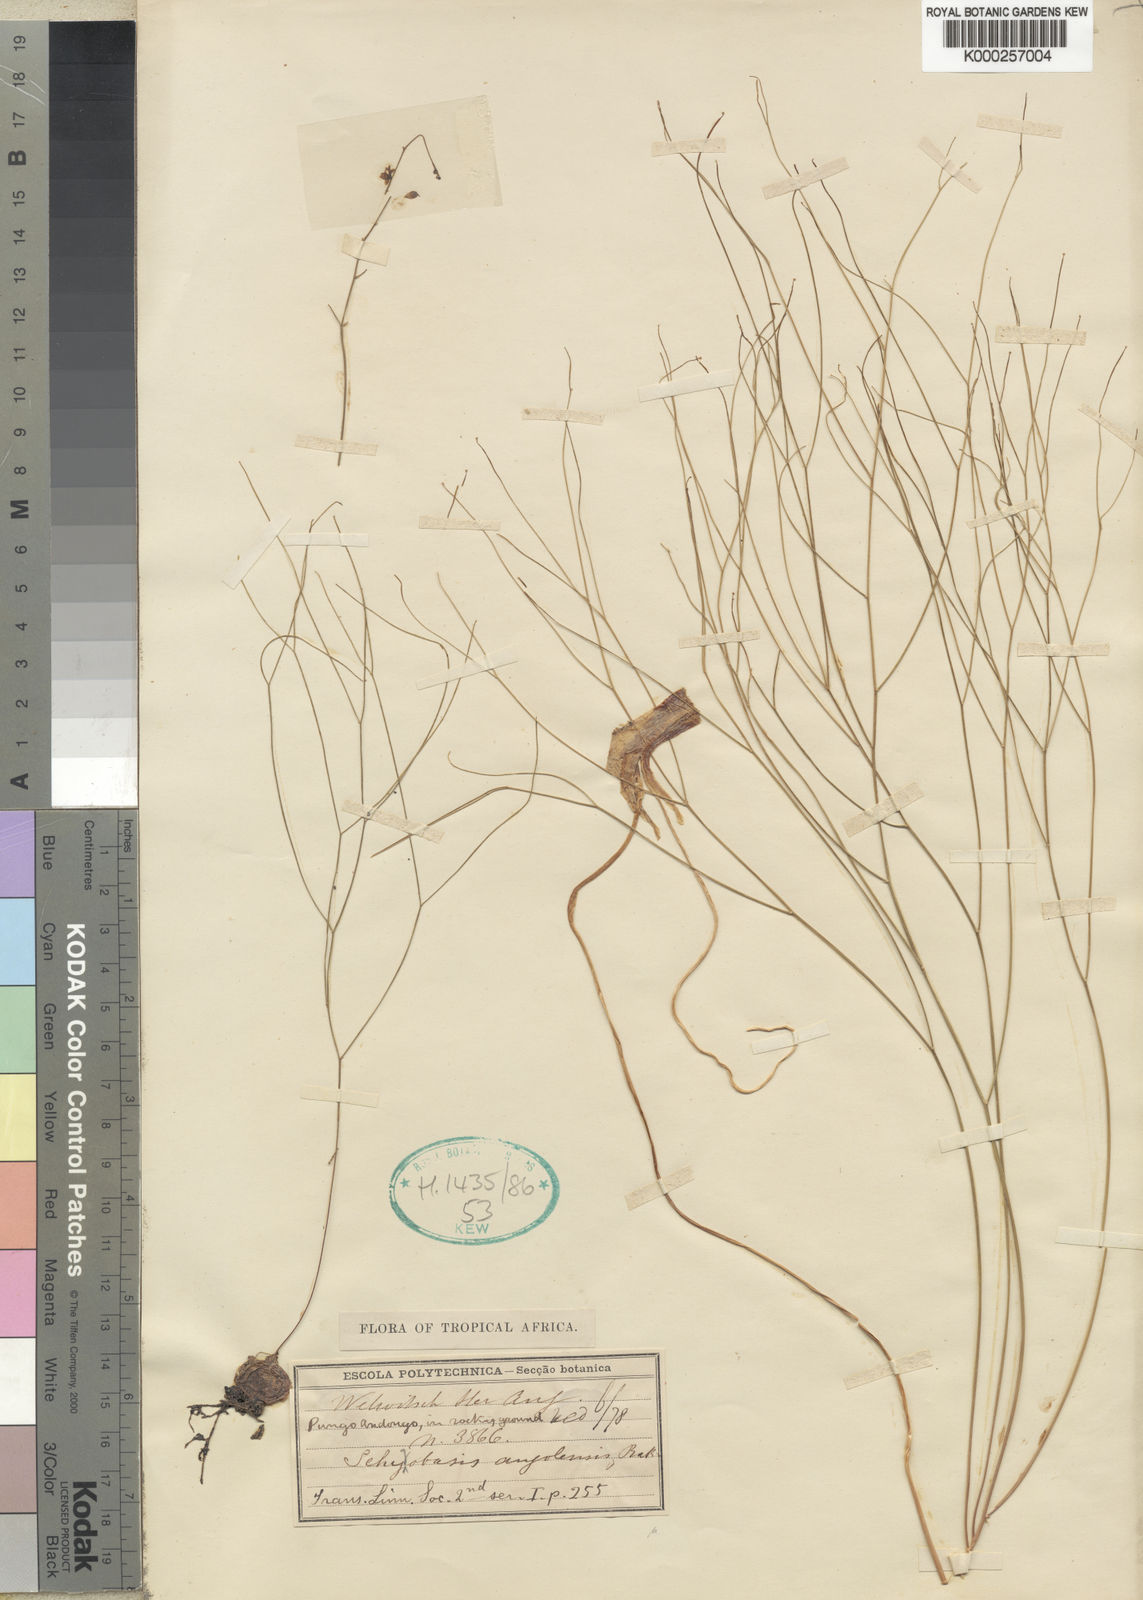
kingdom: Plantae
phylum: Tracheophyta
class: Liliopsida
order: Asparagales
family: Asparagaceae
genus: Drimia
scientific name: Drimia intricata
